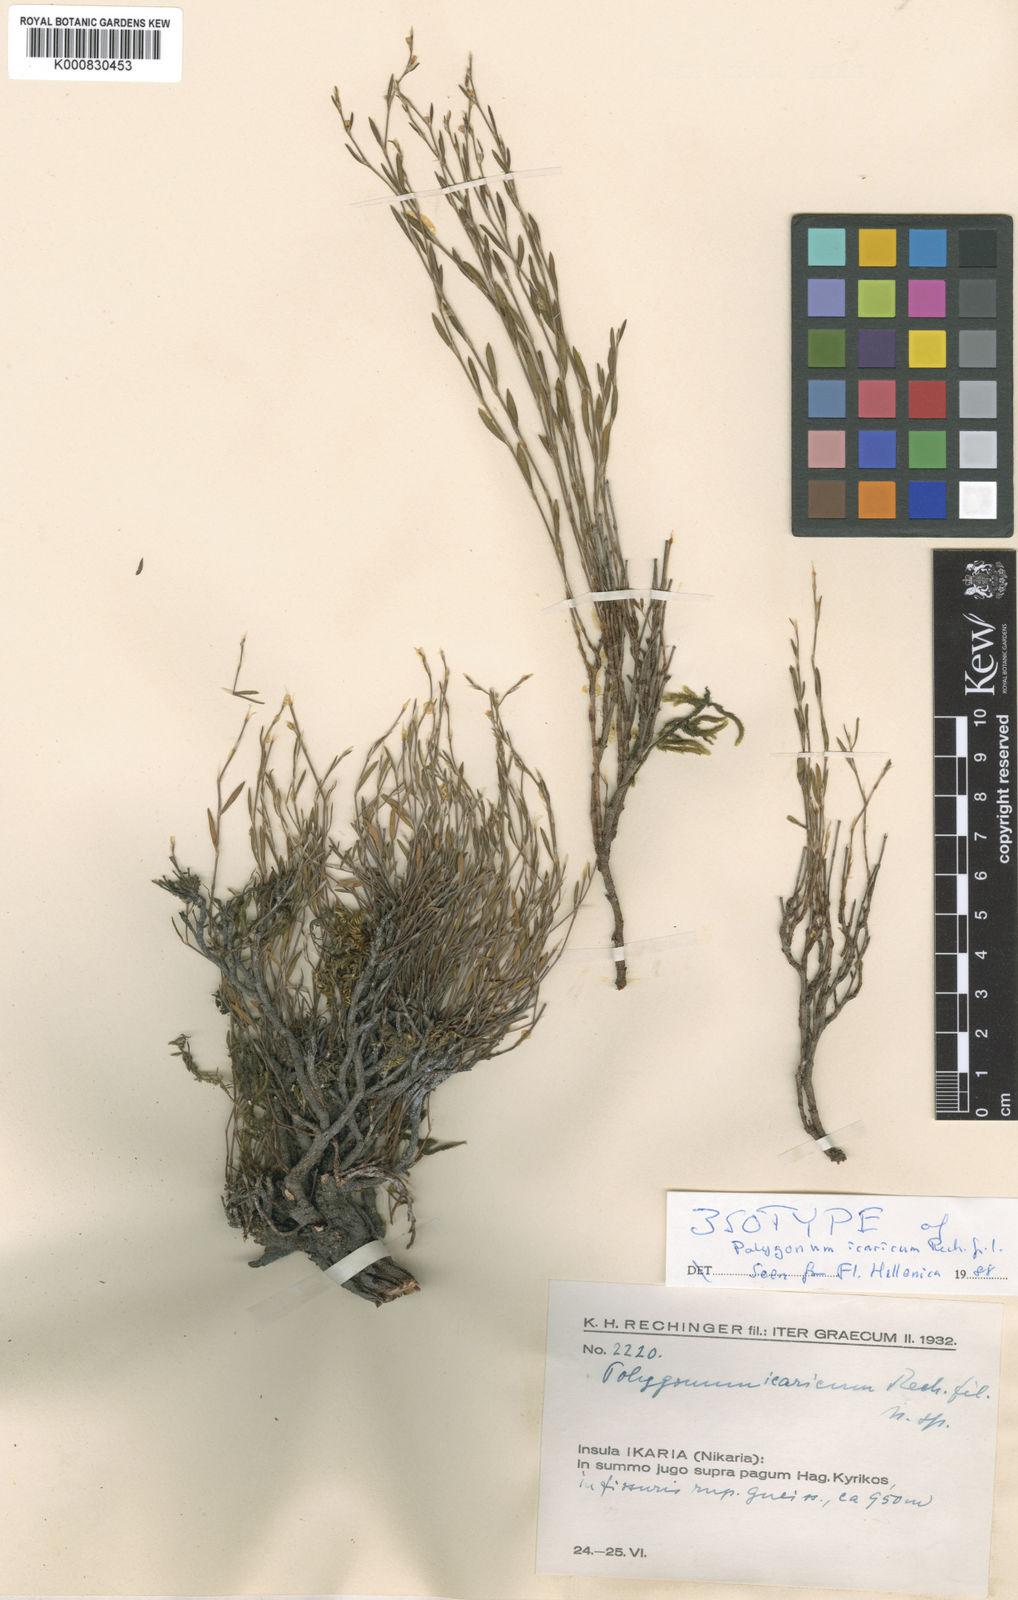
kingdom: Plantae
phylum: Tracheophyta
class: Magnoliopsida
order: Caryophyllales
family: Polygonaceae
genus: Polygonum
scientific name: Polygonum icaricum
